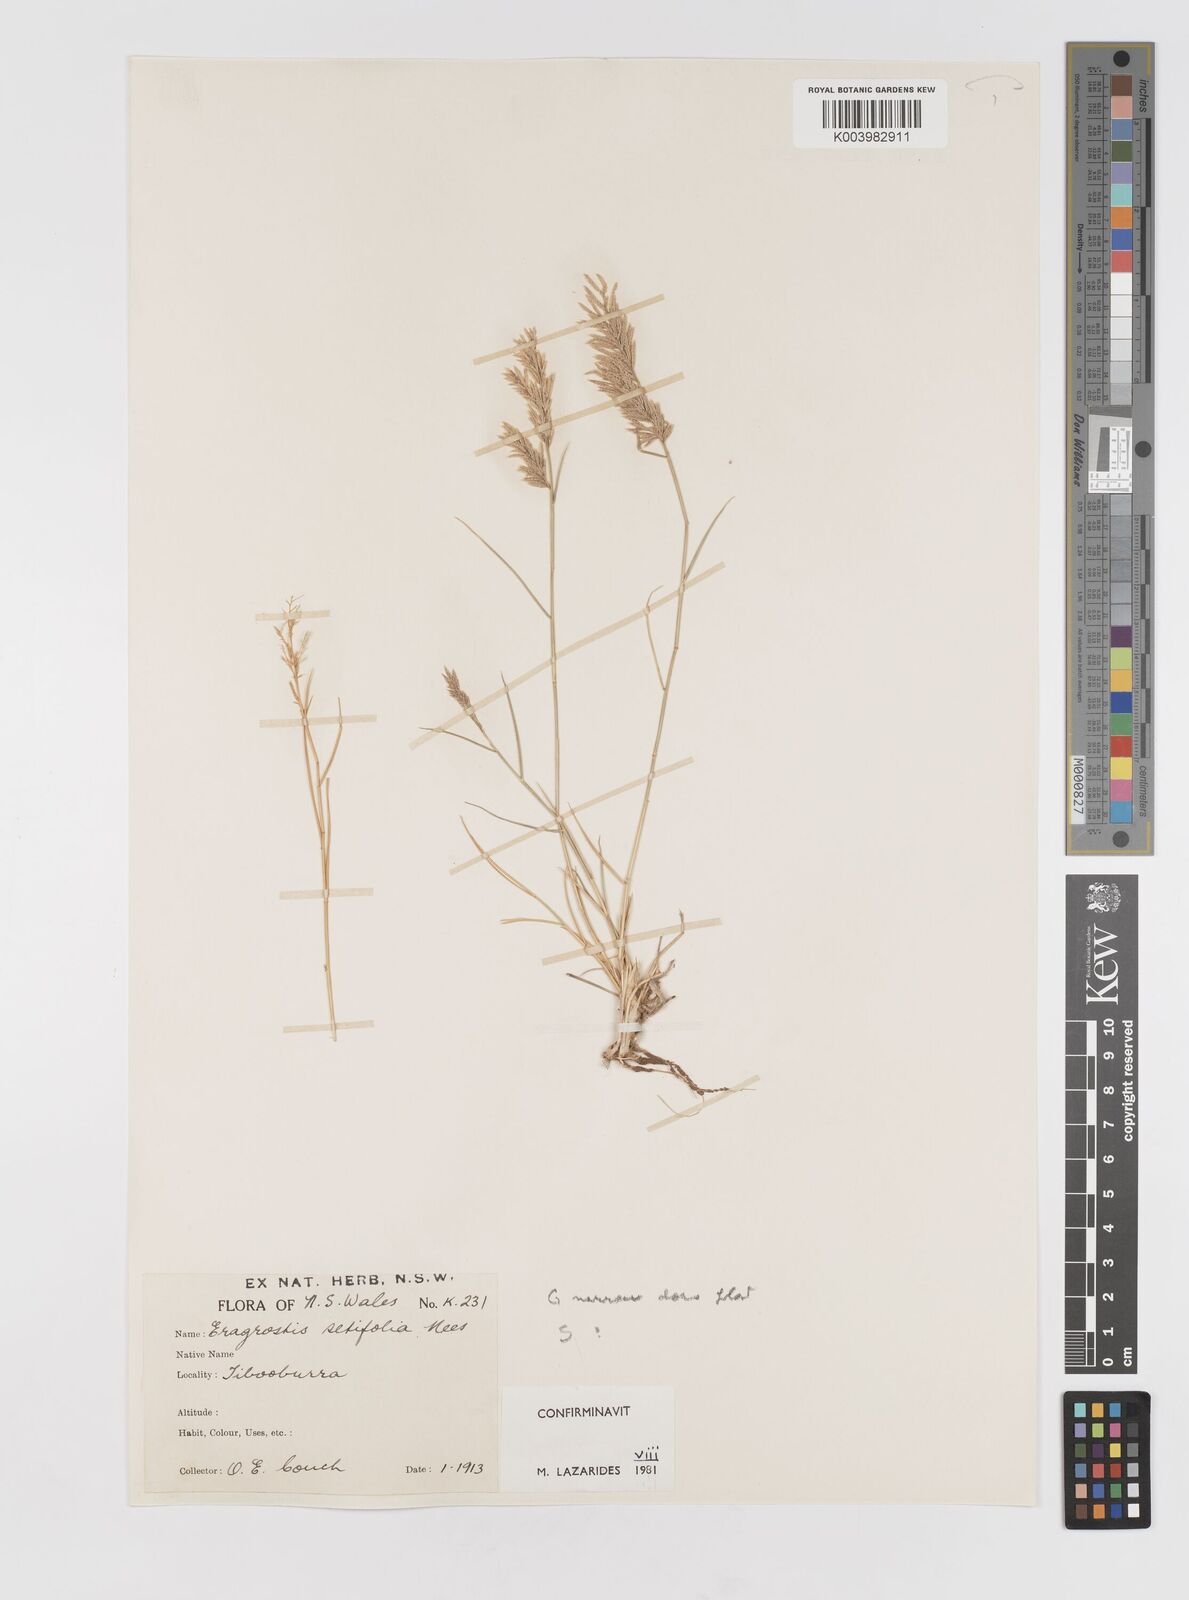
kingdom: Plantae
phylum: Tracheophyta
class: Liliopsida
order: Poales
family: Poaceae
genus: Eragrostis
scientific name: Eragrostis setifolia
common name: Bristleleaf lovegrass
